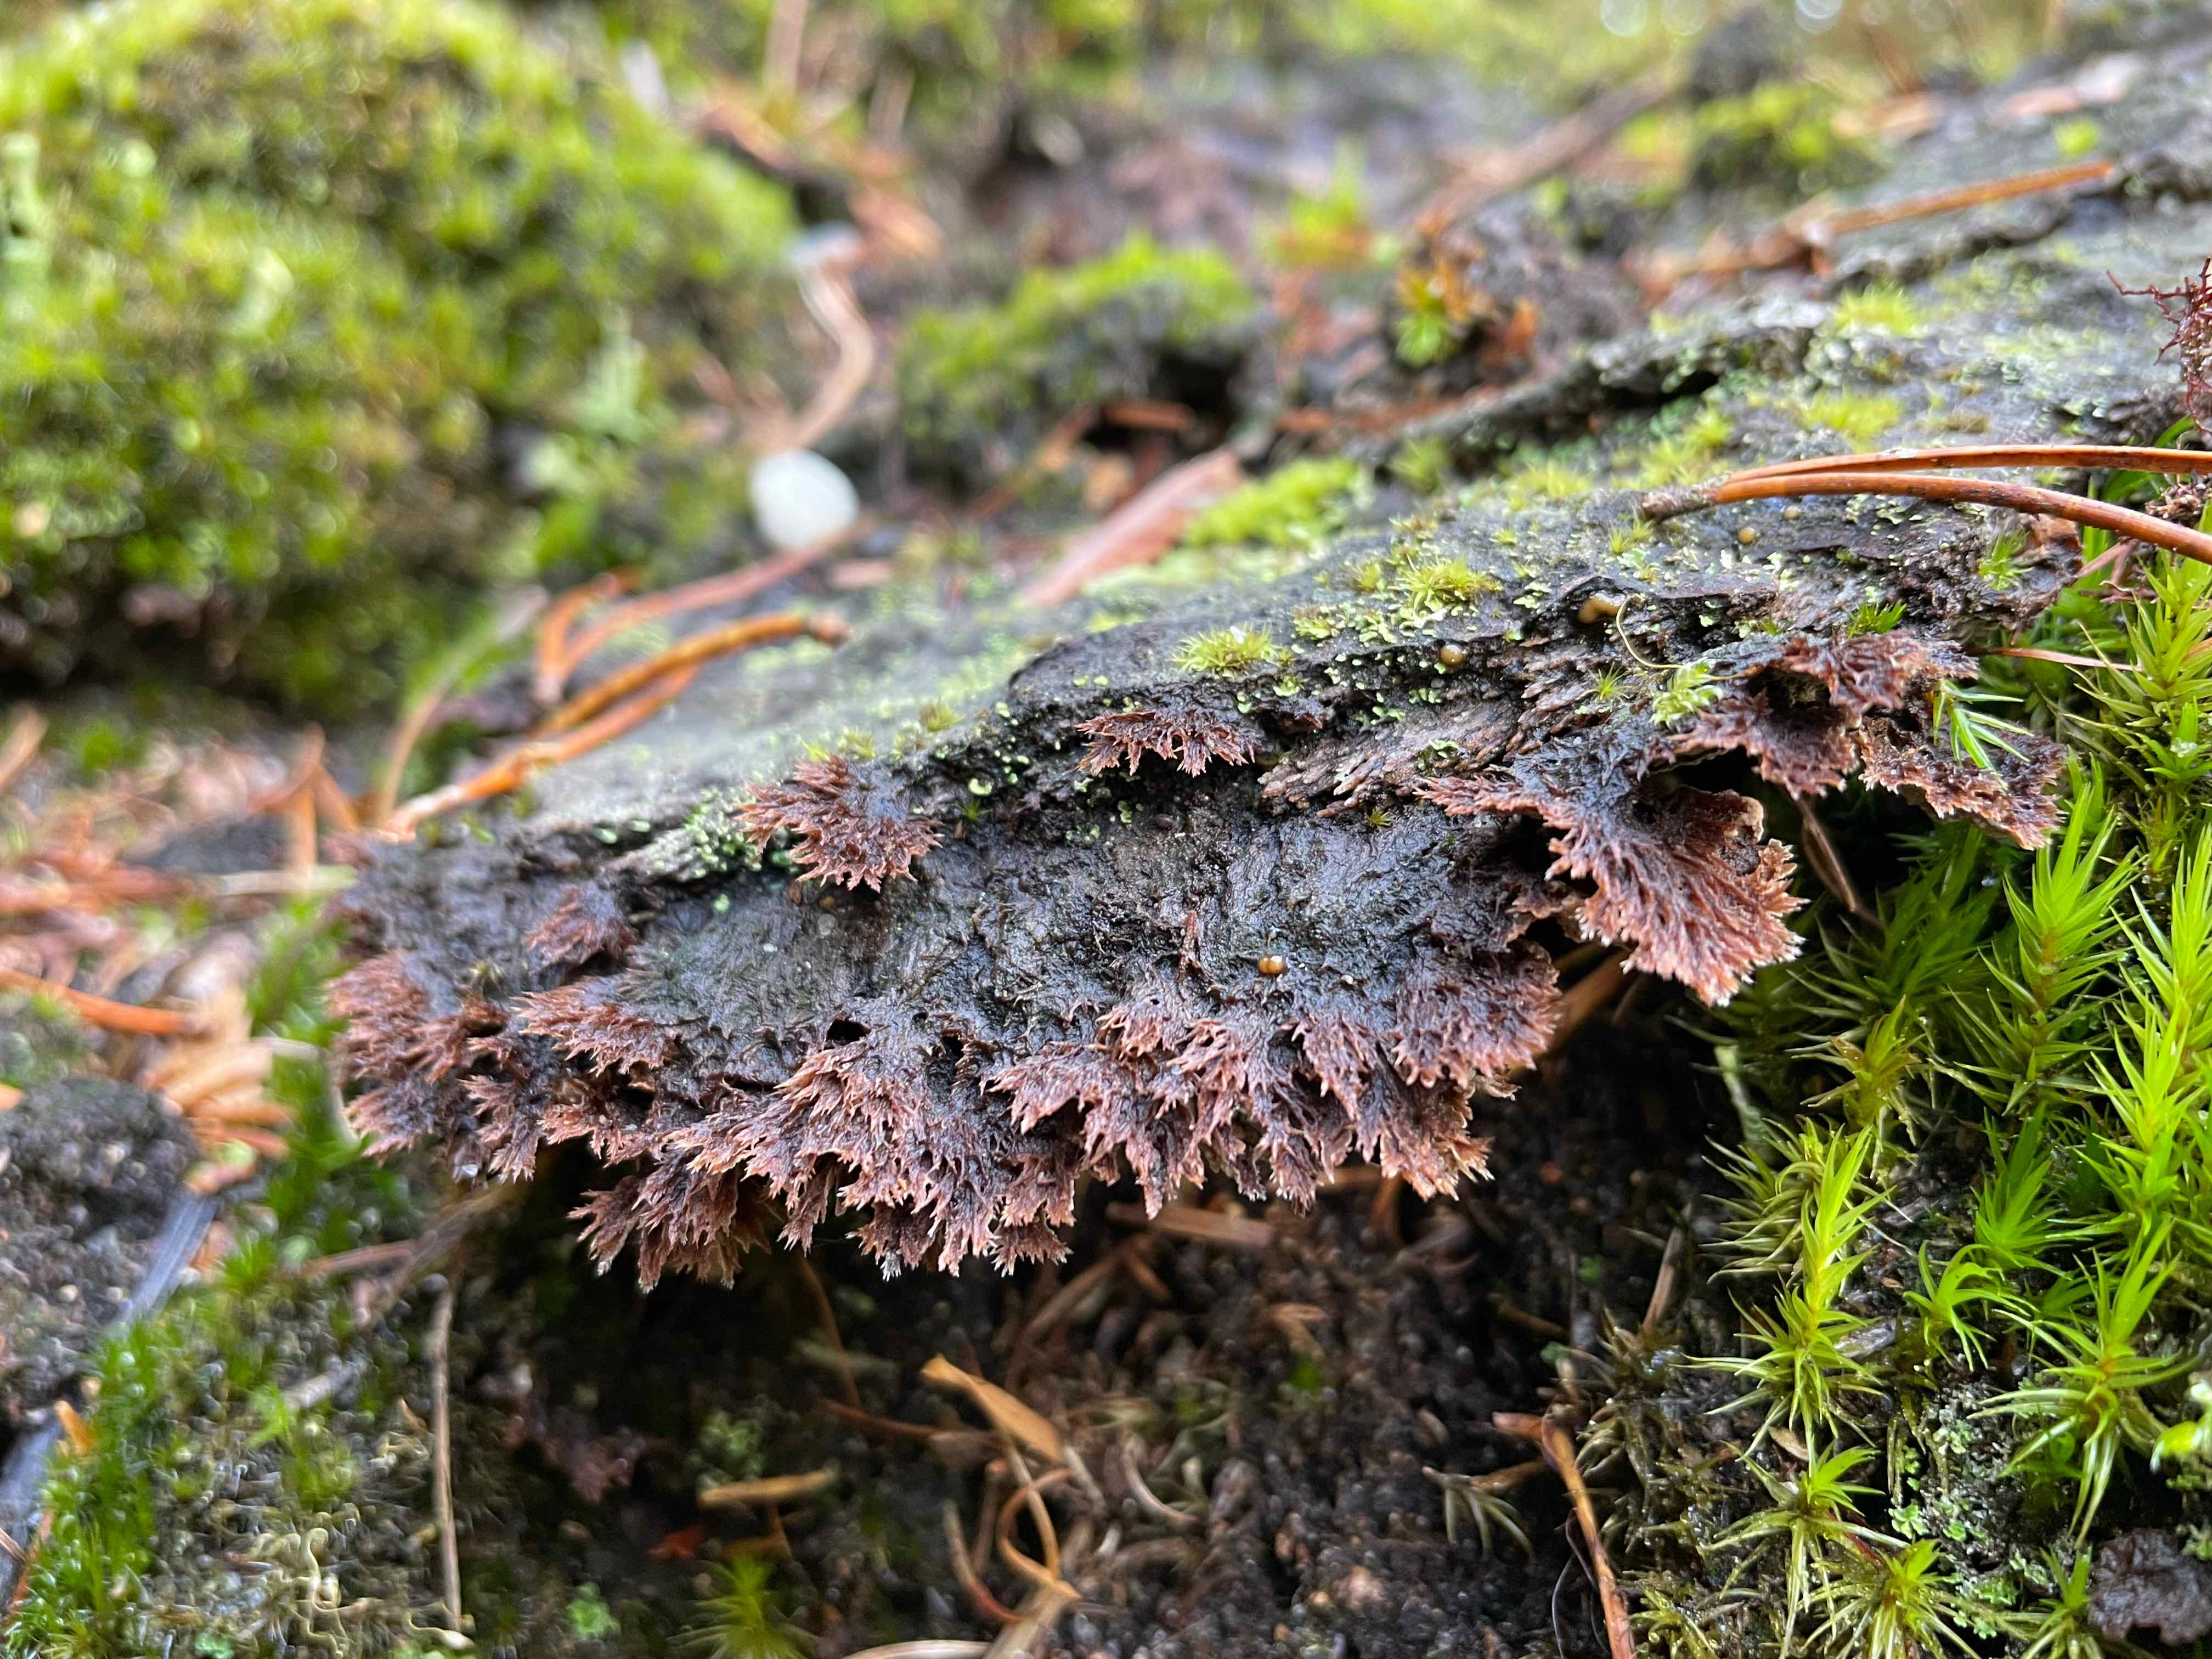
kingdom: Fungi
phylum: Basidiomycota
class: Agaricomycetes
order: Thelephorales
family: Thelephoraceae
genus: Thelephora
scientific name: Thelephora terrestris
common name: fliget frynsesvamp
